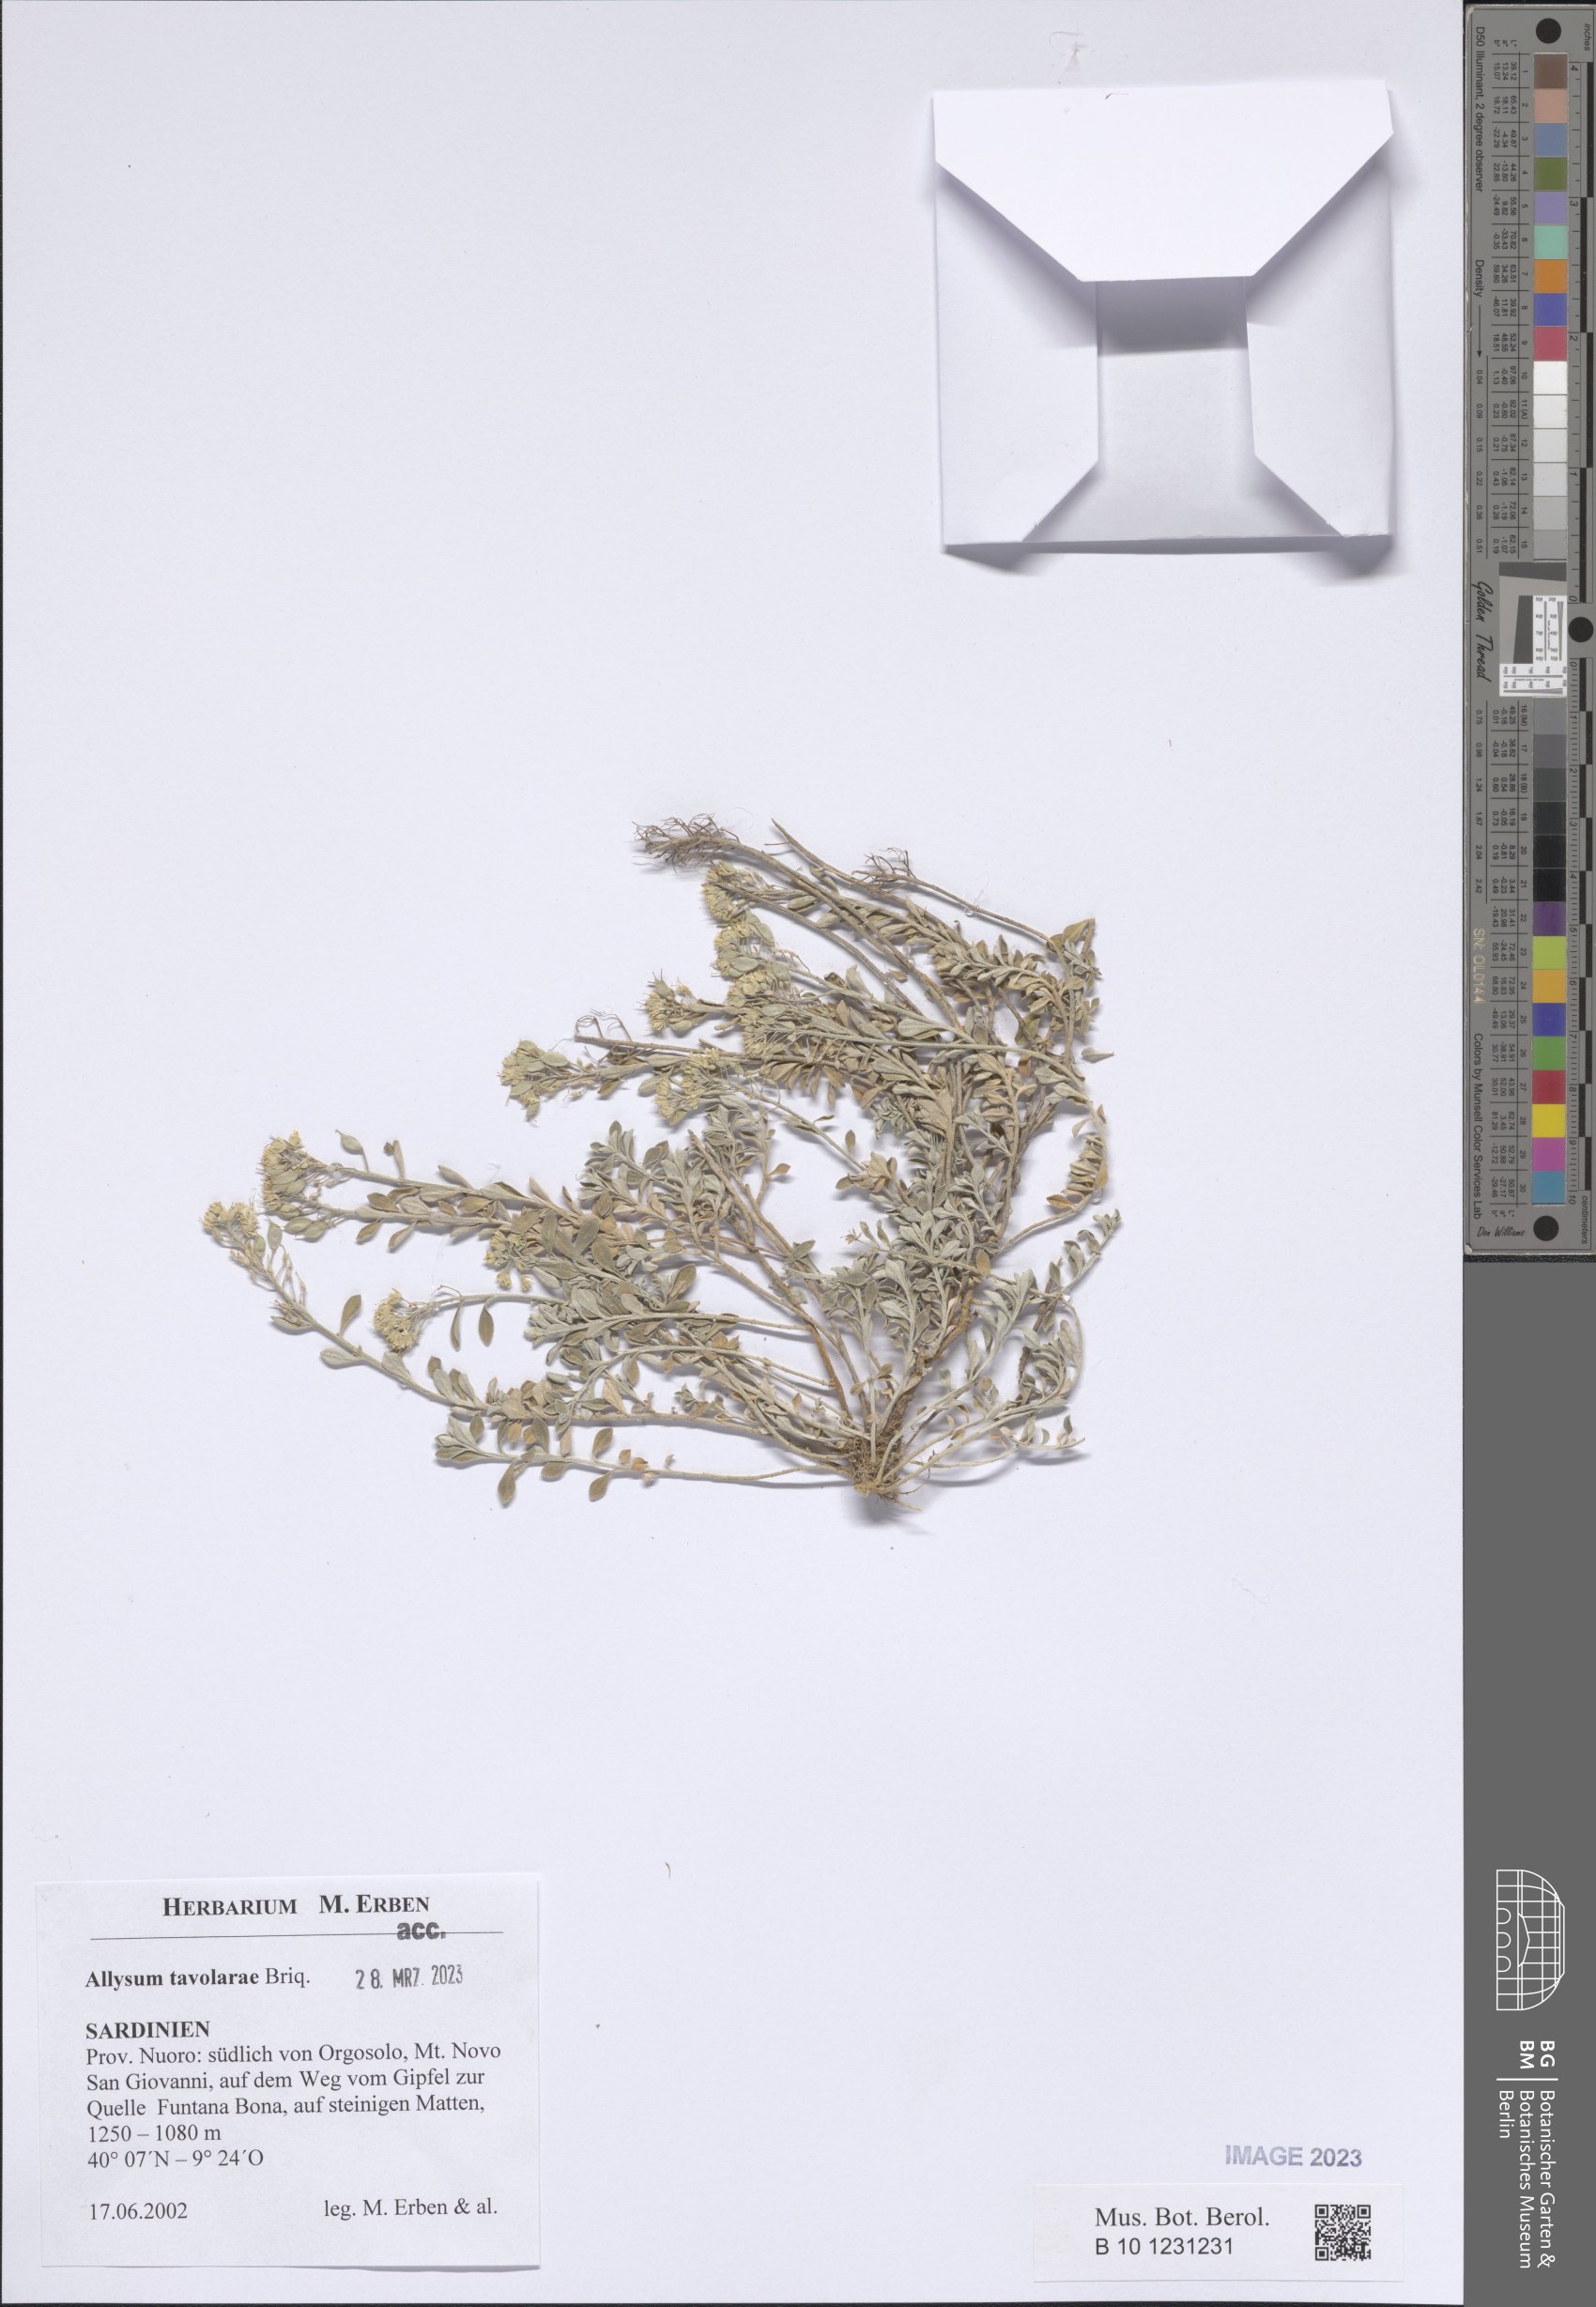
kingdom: Plantae
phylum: Tracheophyta
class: Magnoliopsida
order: Brassicales
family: Brassicaceae
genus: Odontarrhena
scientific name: Odontarrhena tavolarae
